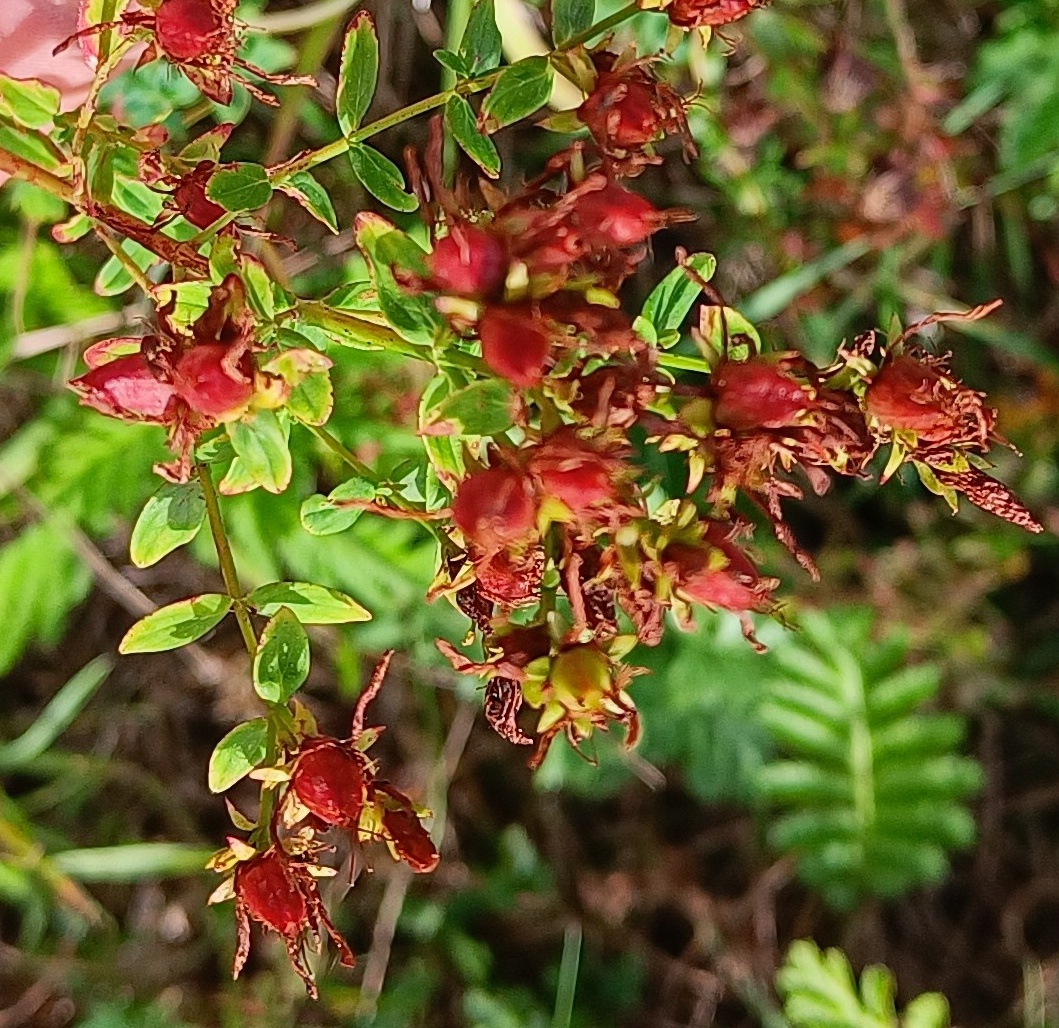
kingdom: Plantae
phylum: Tracheophyta
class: Magnoliopsida
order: Malpighiales
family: Hypericaceae
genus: Hypericum
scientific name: Hypericum perforatum
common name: Prikbladet perikon
